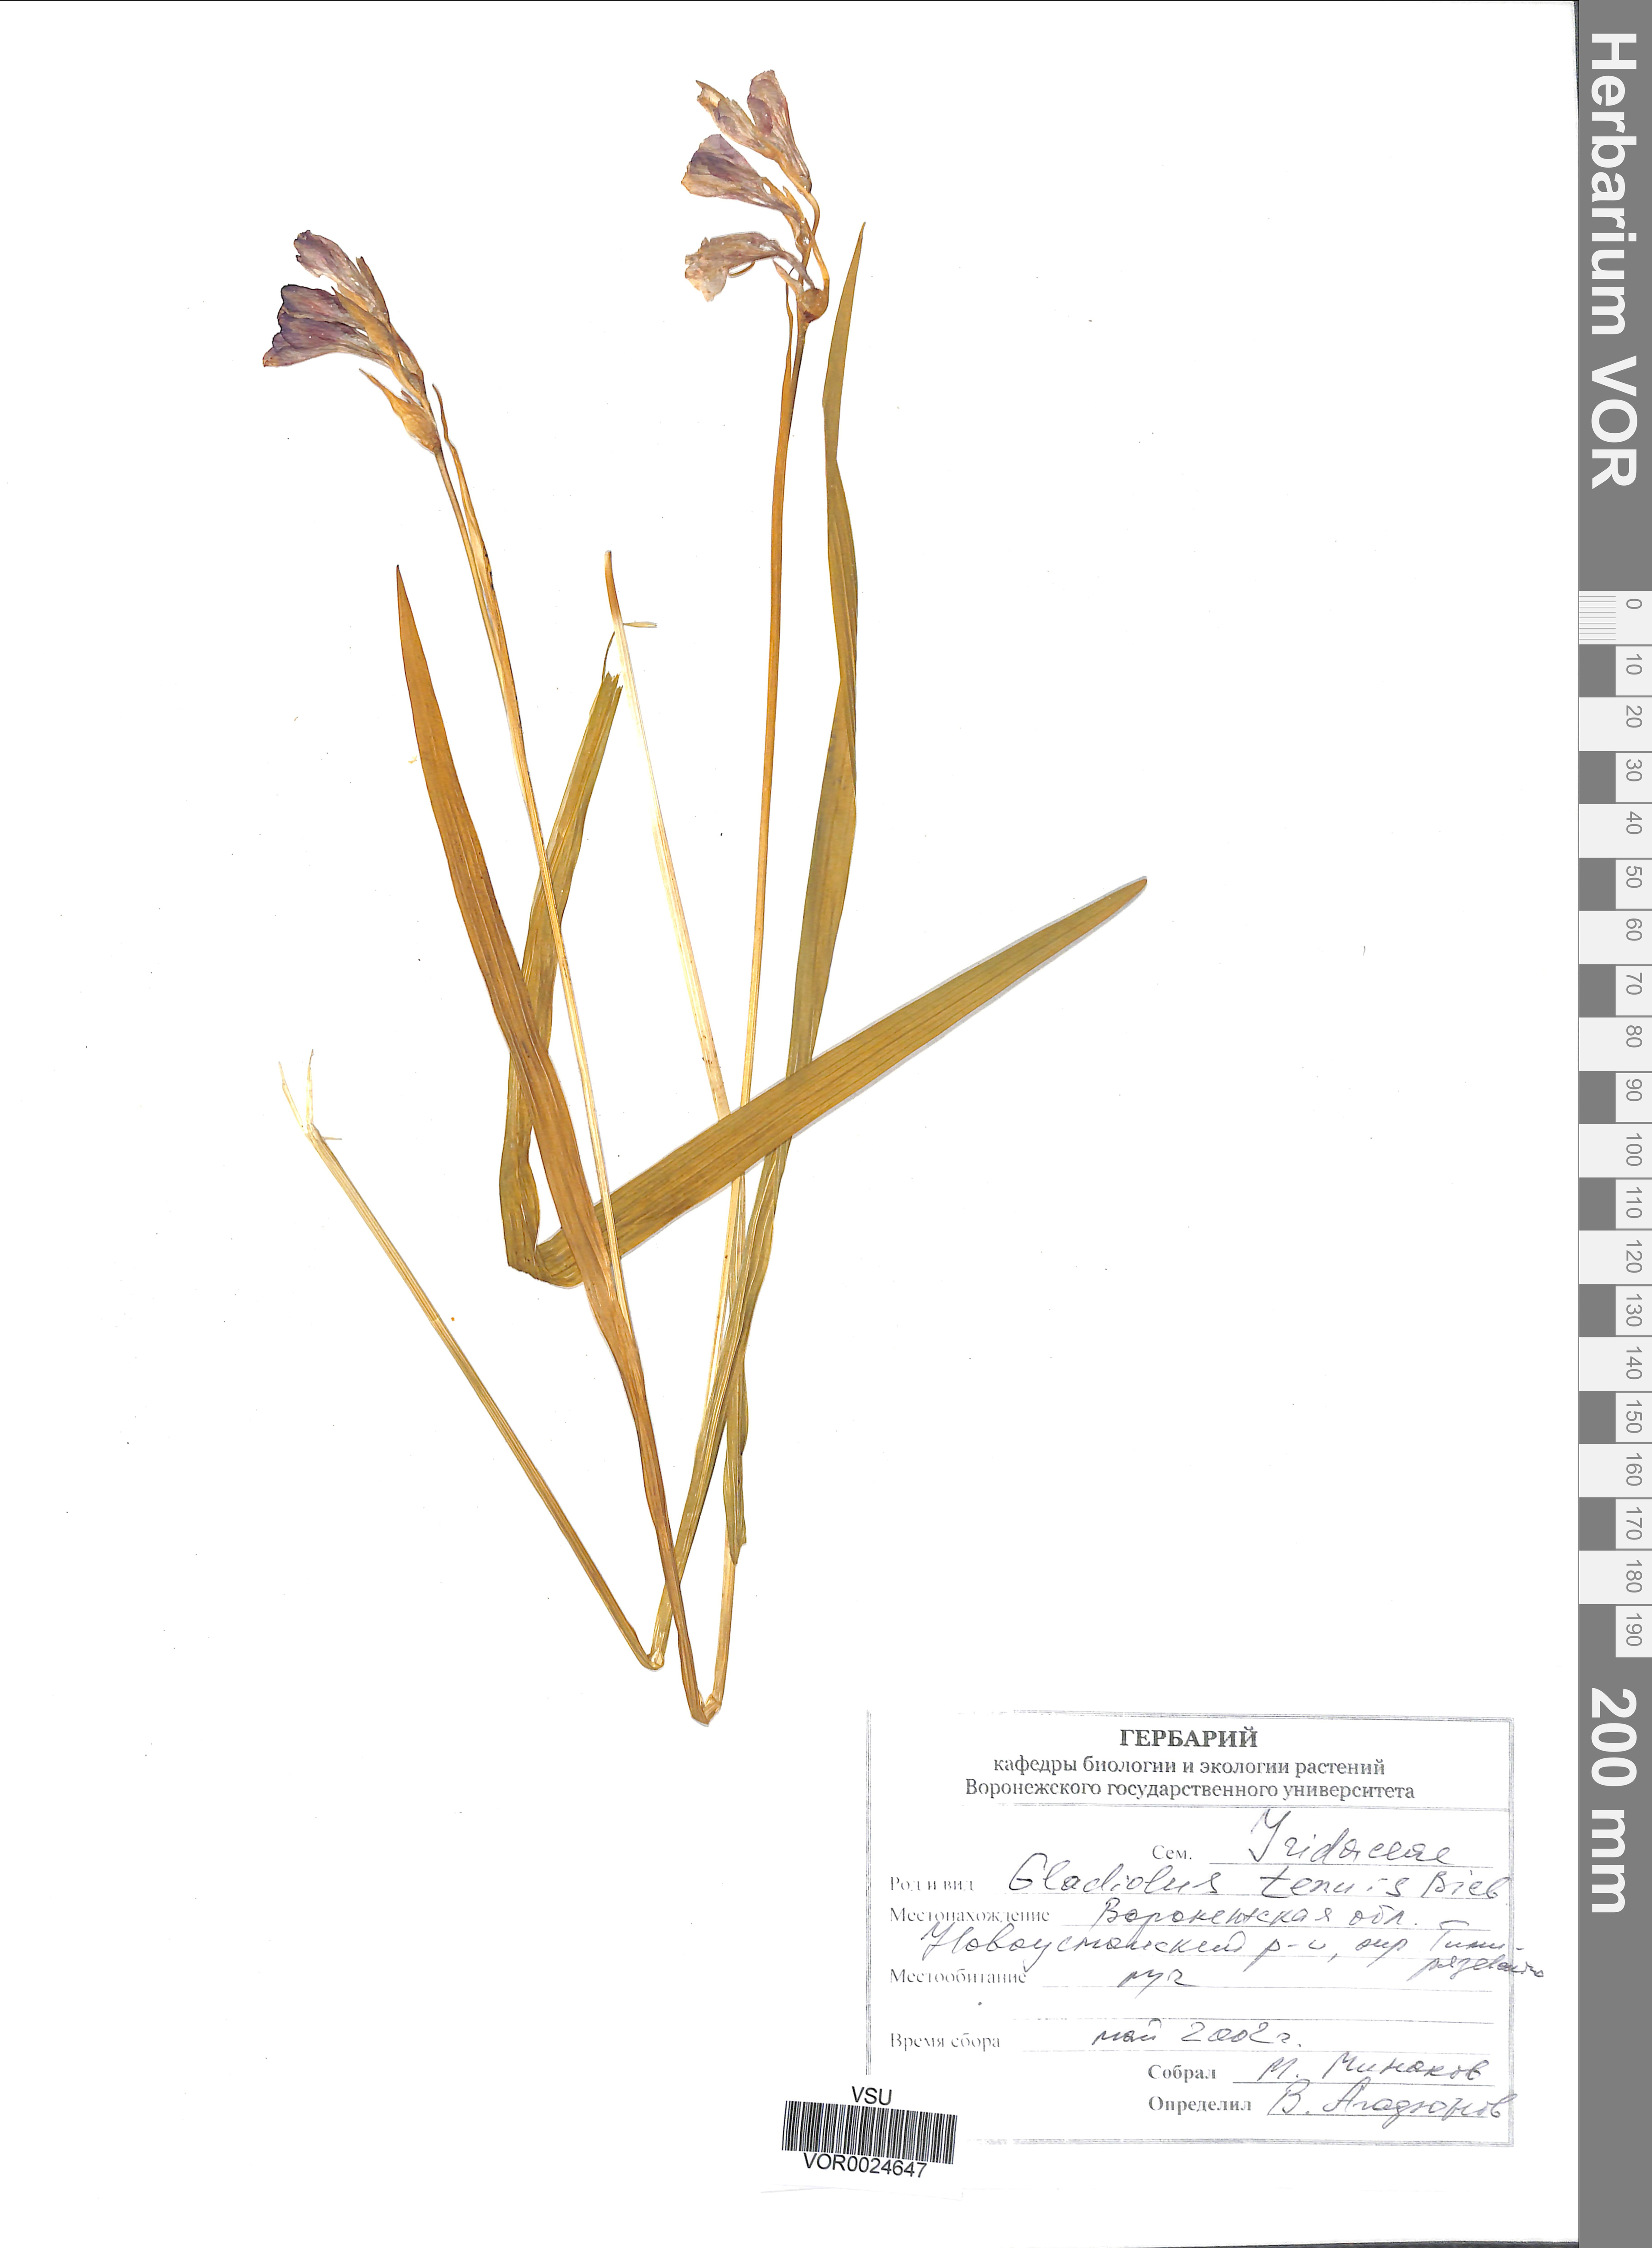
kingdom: Plantae
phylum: Tracheophyta
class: Liliopsida
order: Asparagales
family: Iridaceae
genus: Gladiolus
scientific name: Gladiolus tenuis
